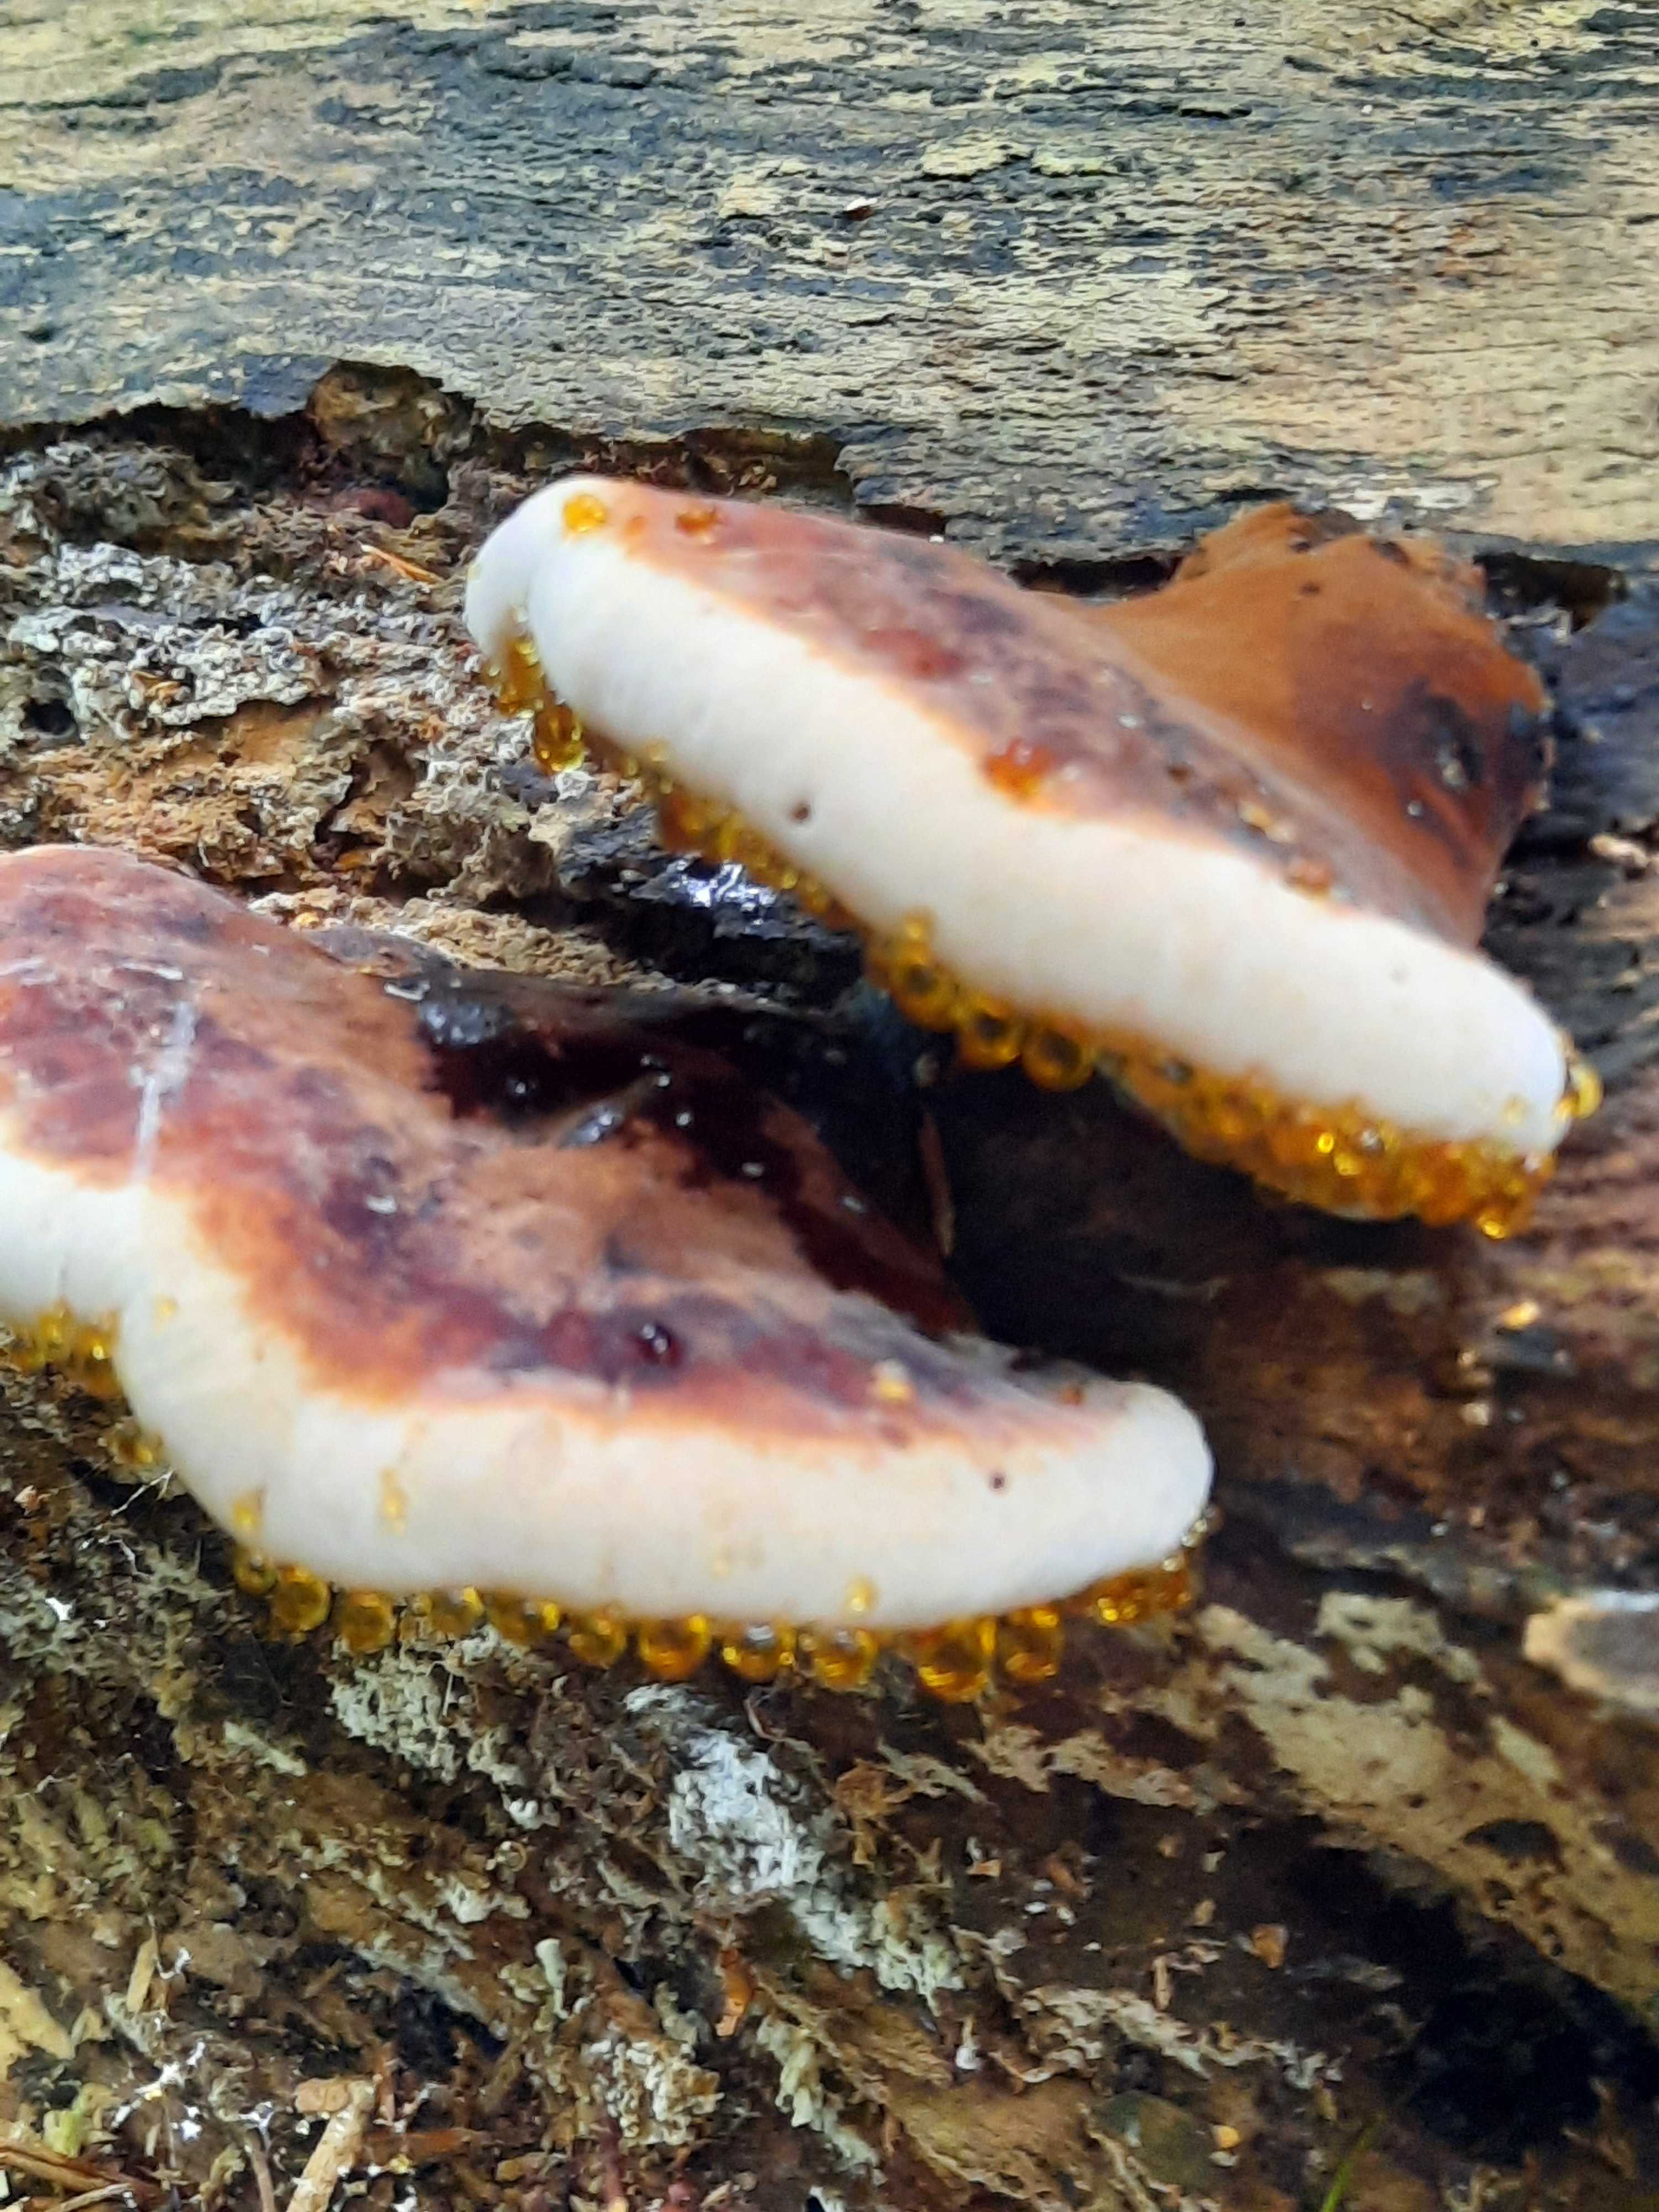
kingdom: Fungi
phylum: Basidiomycota
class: Agaricomycetes
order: Polyporales
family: Ischnodermataceae
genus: Ischnoderma
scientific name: Ischnoderma resinosum
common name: løv-tjæreporesvamp
